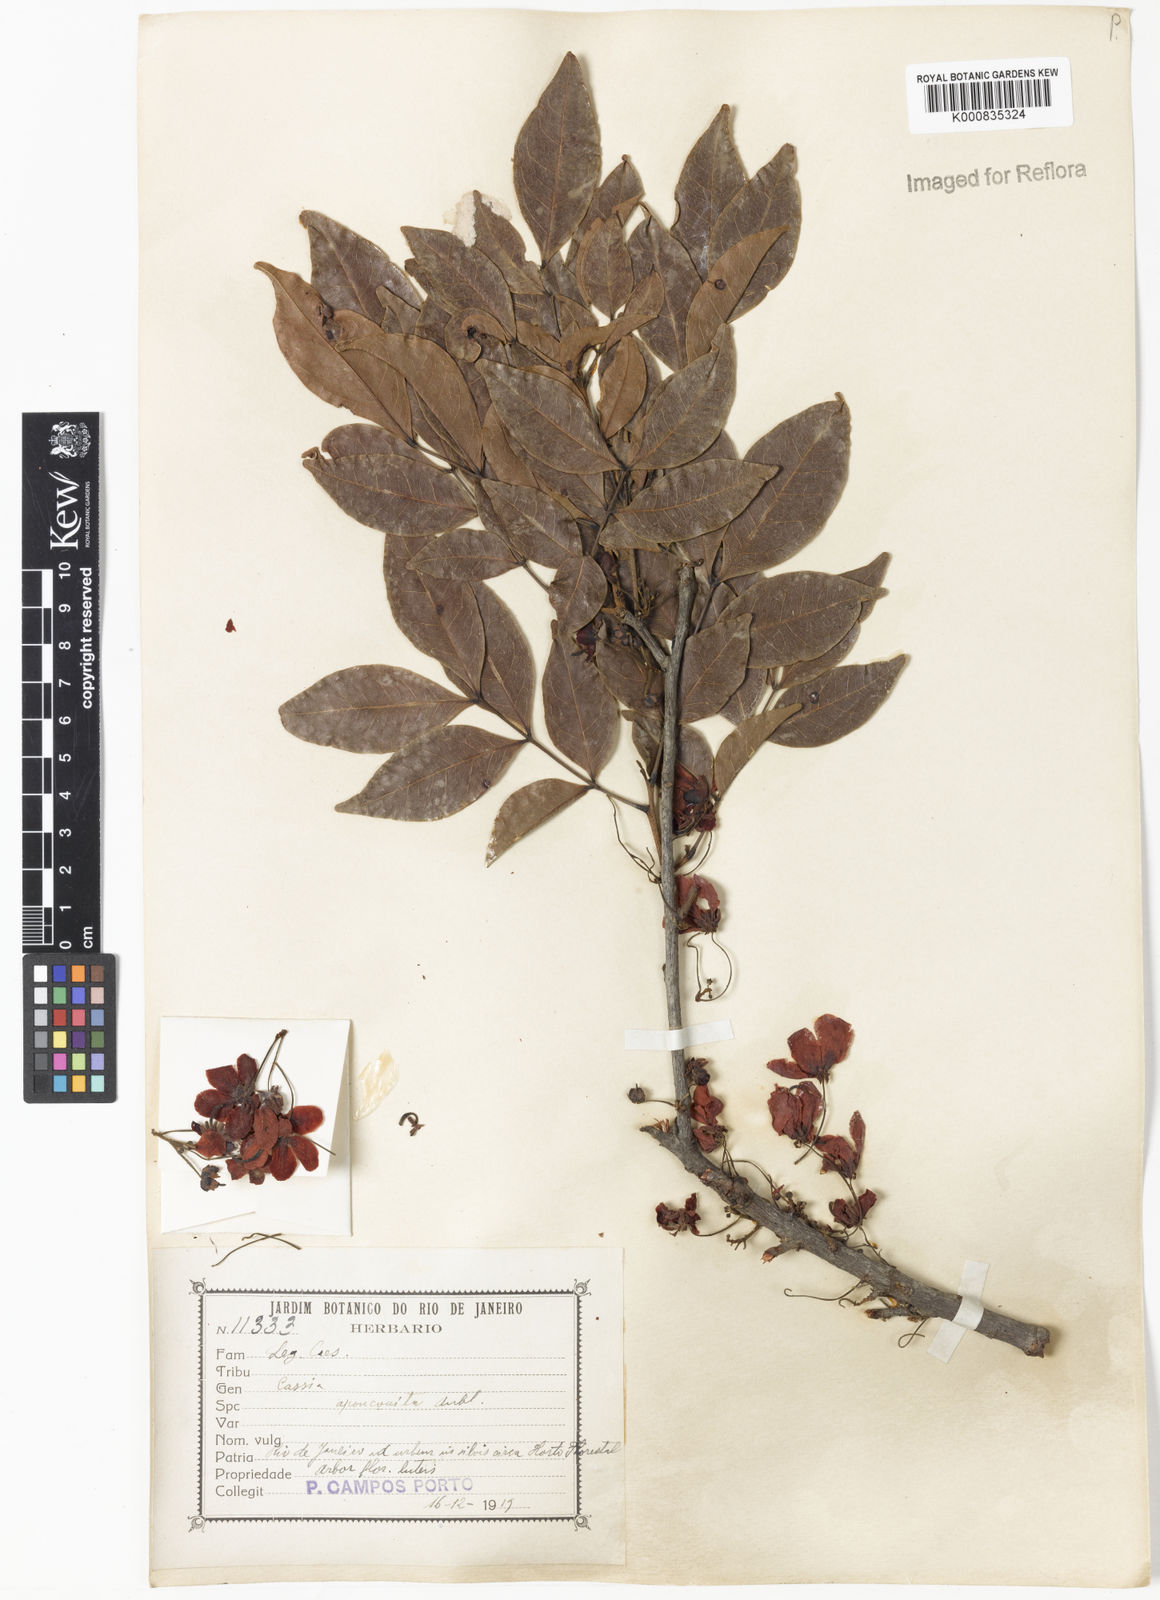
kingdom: Plantae
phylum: Tracheophyta
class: Magnoliopsida
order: Fabales
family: Fabaceae
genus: Chamaecrista
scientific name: Chamaecrista apoucouita
